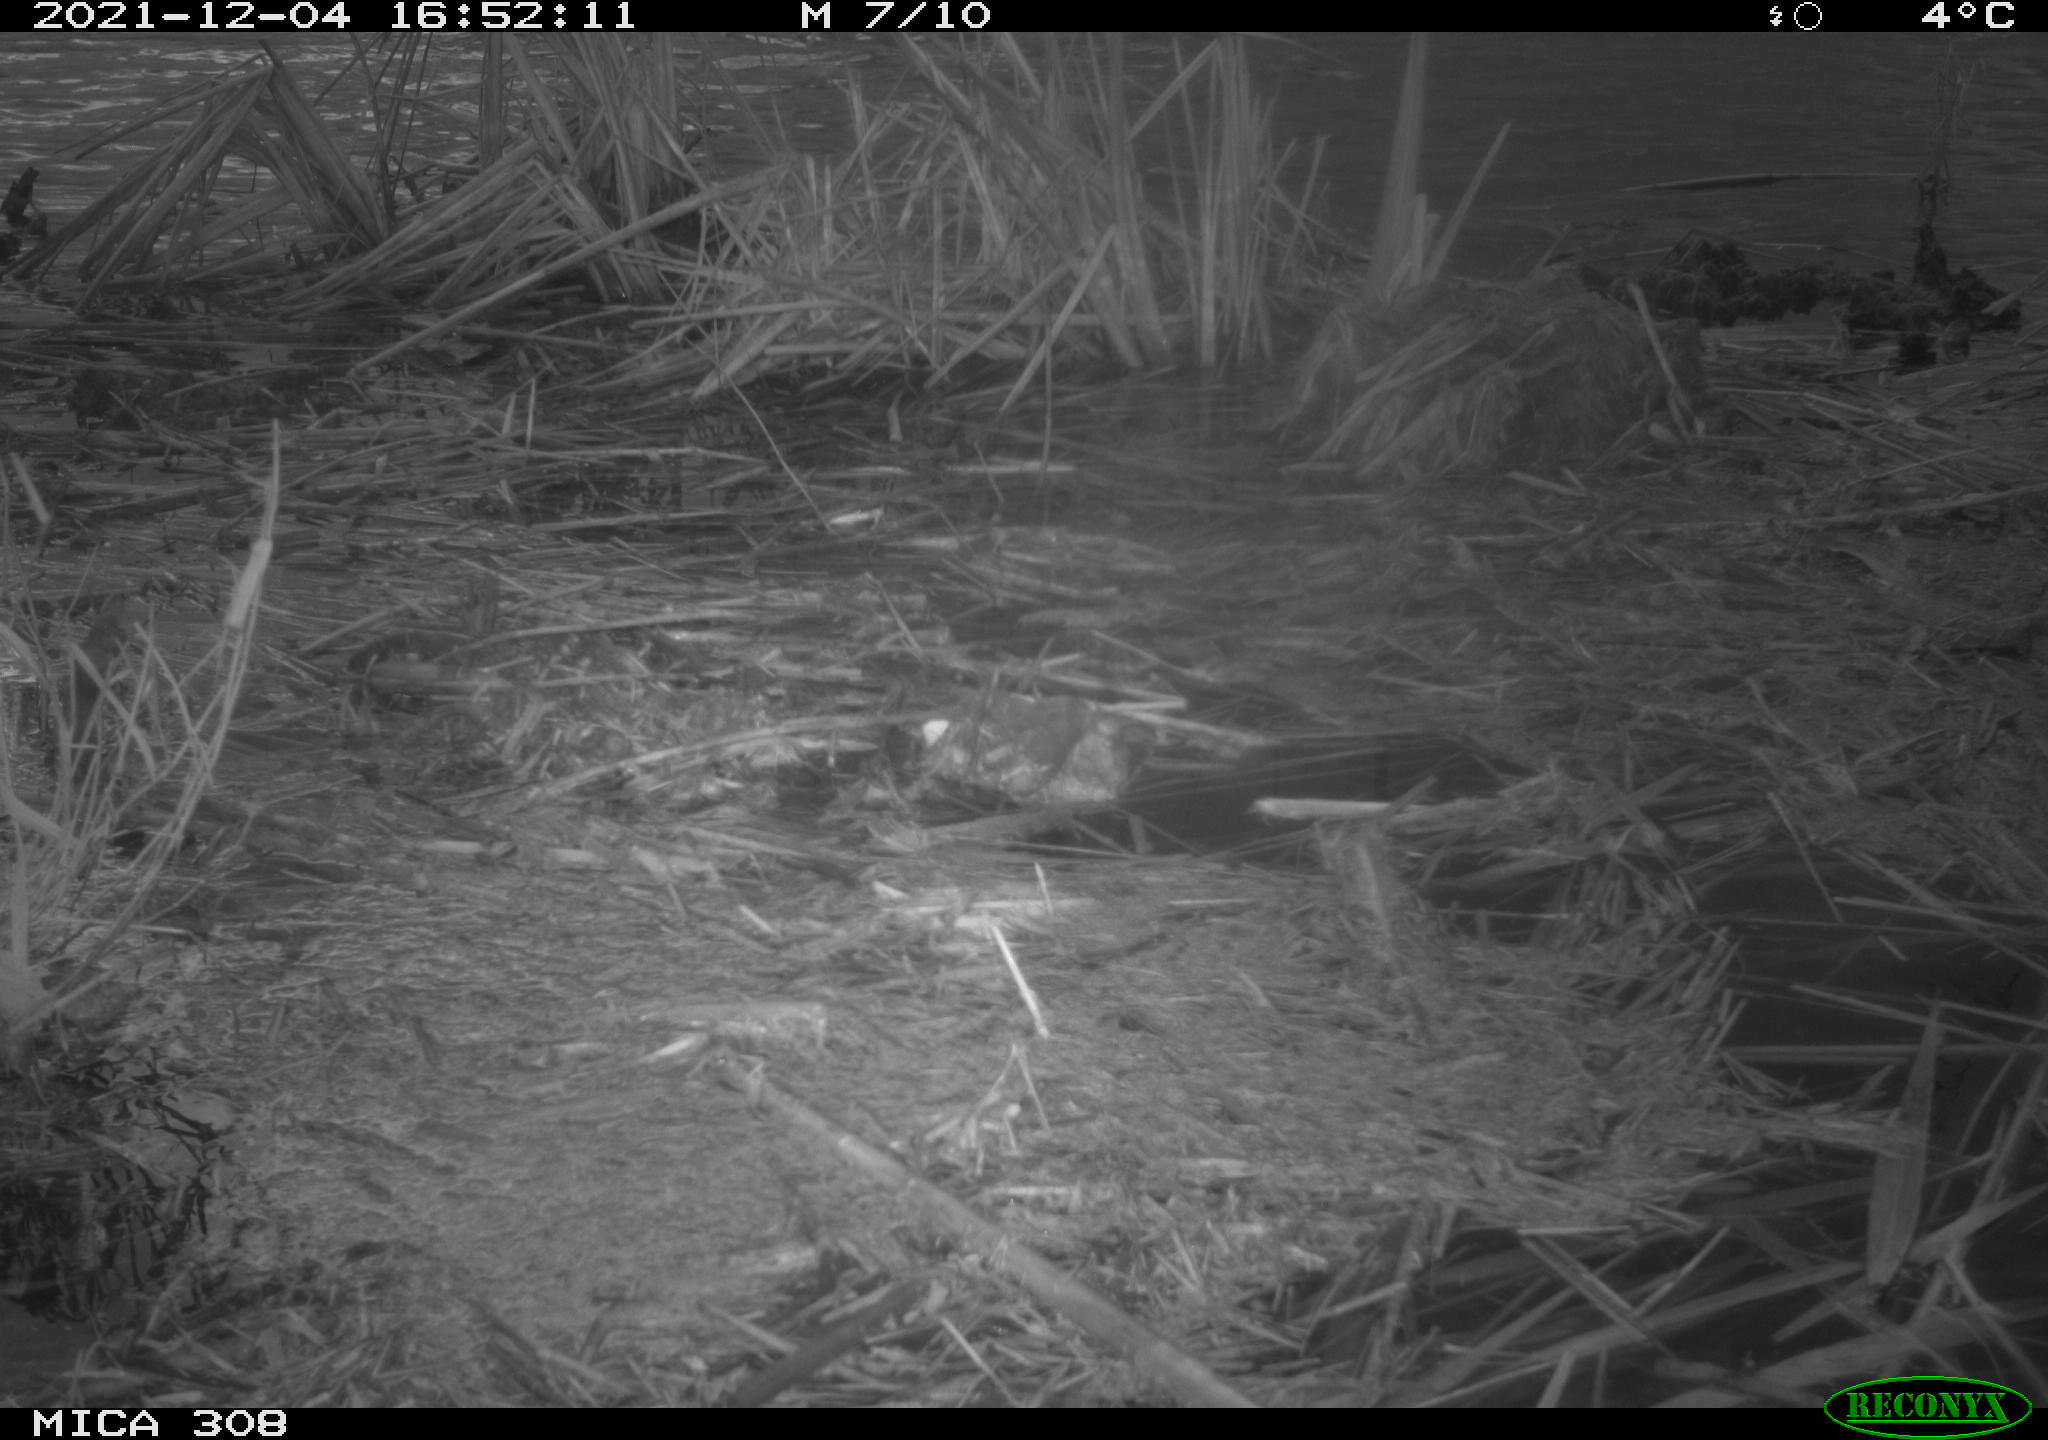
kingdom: Animalia
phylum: Chordata
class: Mammalia
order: Rodentia
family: Cricetidae
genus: Ondatra
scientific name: Ondatra zibethicus
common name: Muskrat
